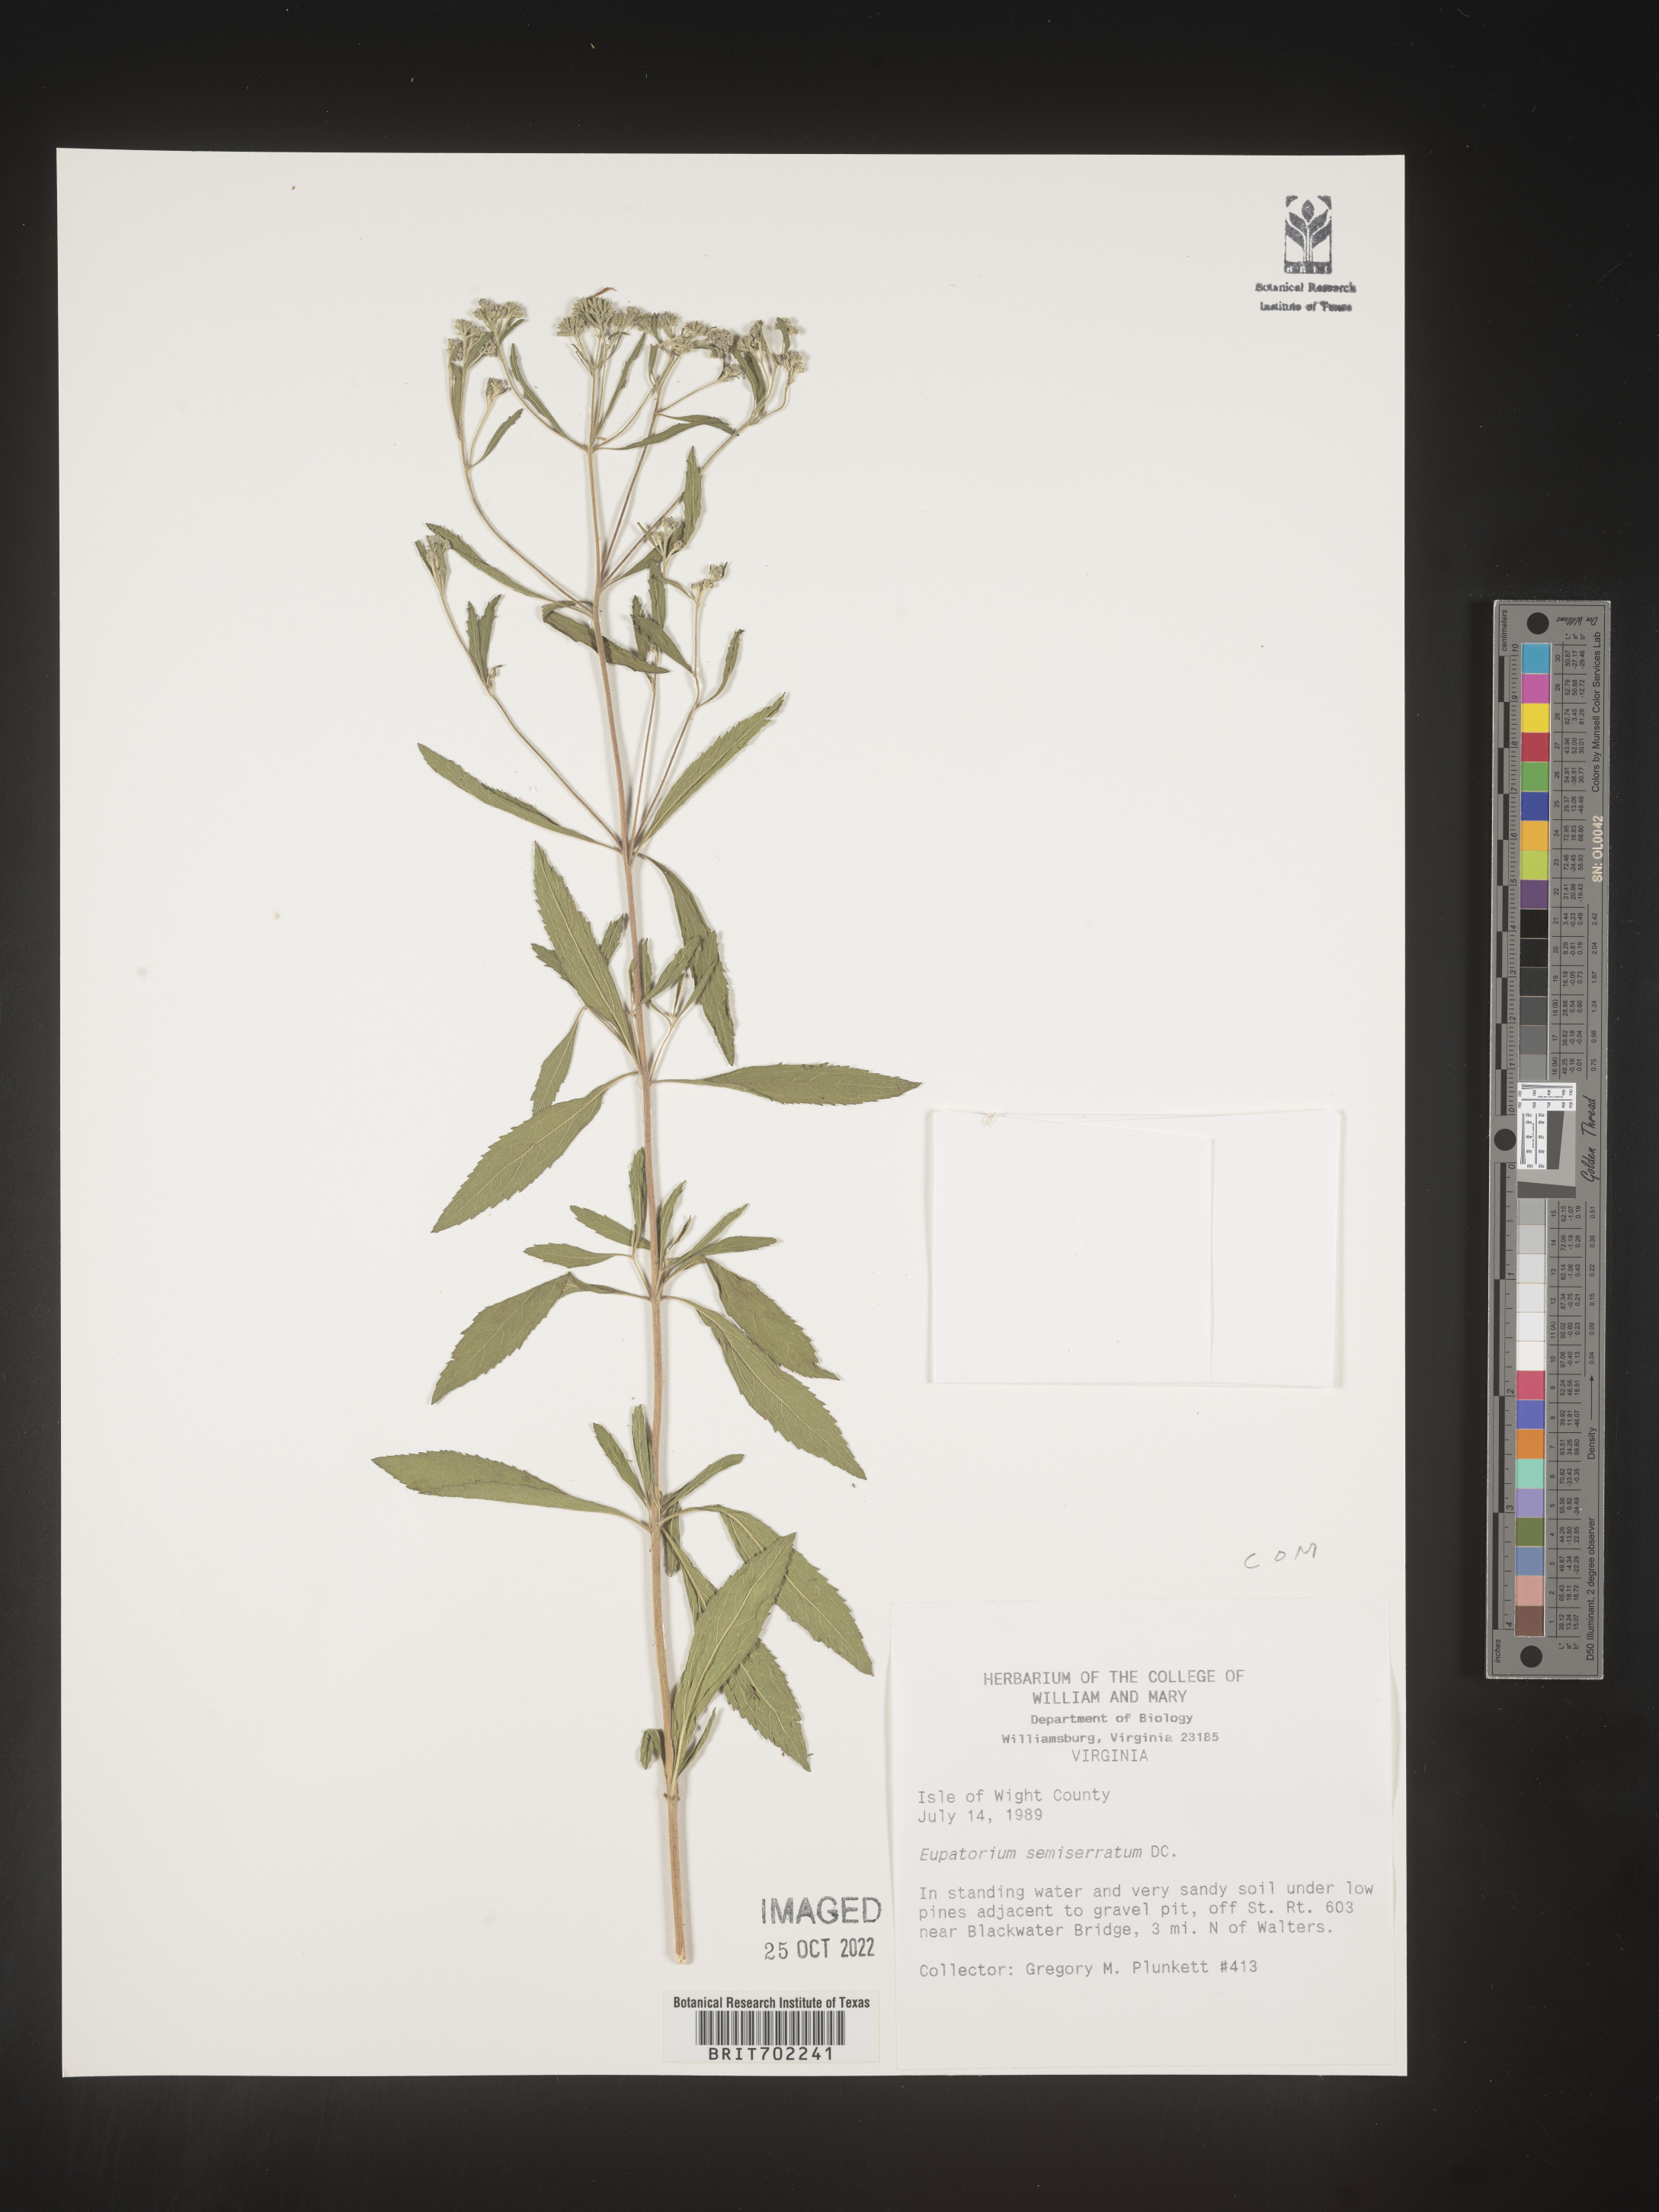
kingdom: Plantae
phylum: Tracheophyta
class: Magnoliopsida
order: Asterales
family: Asteraceae
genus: Eupatorium
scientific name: Eupatorium semiserratum
